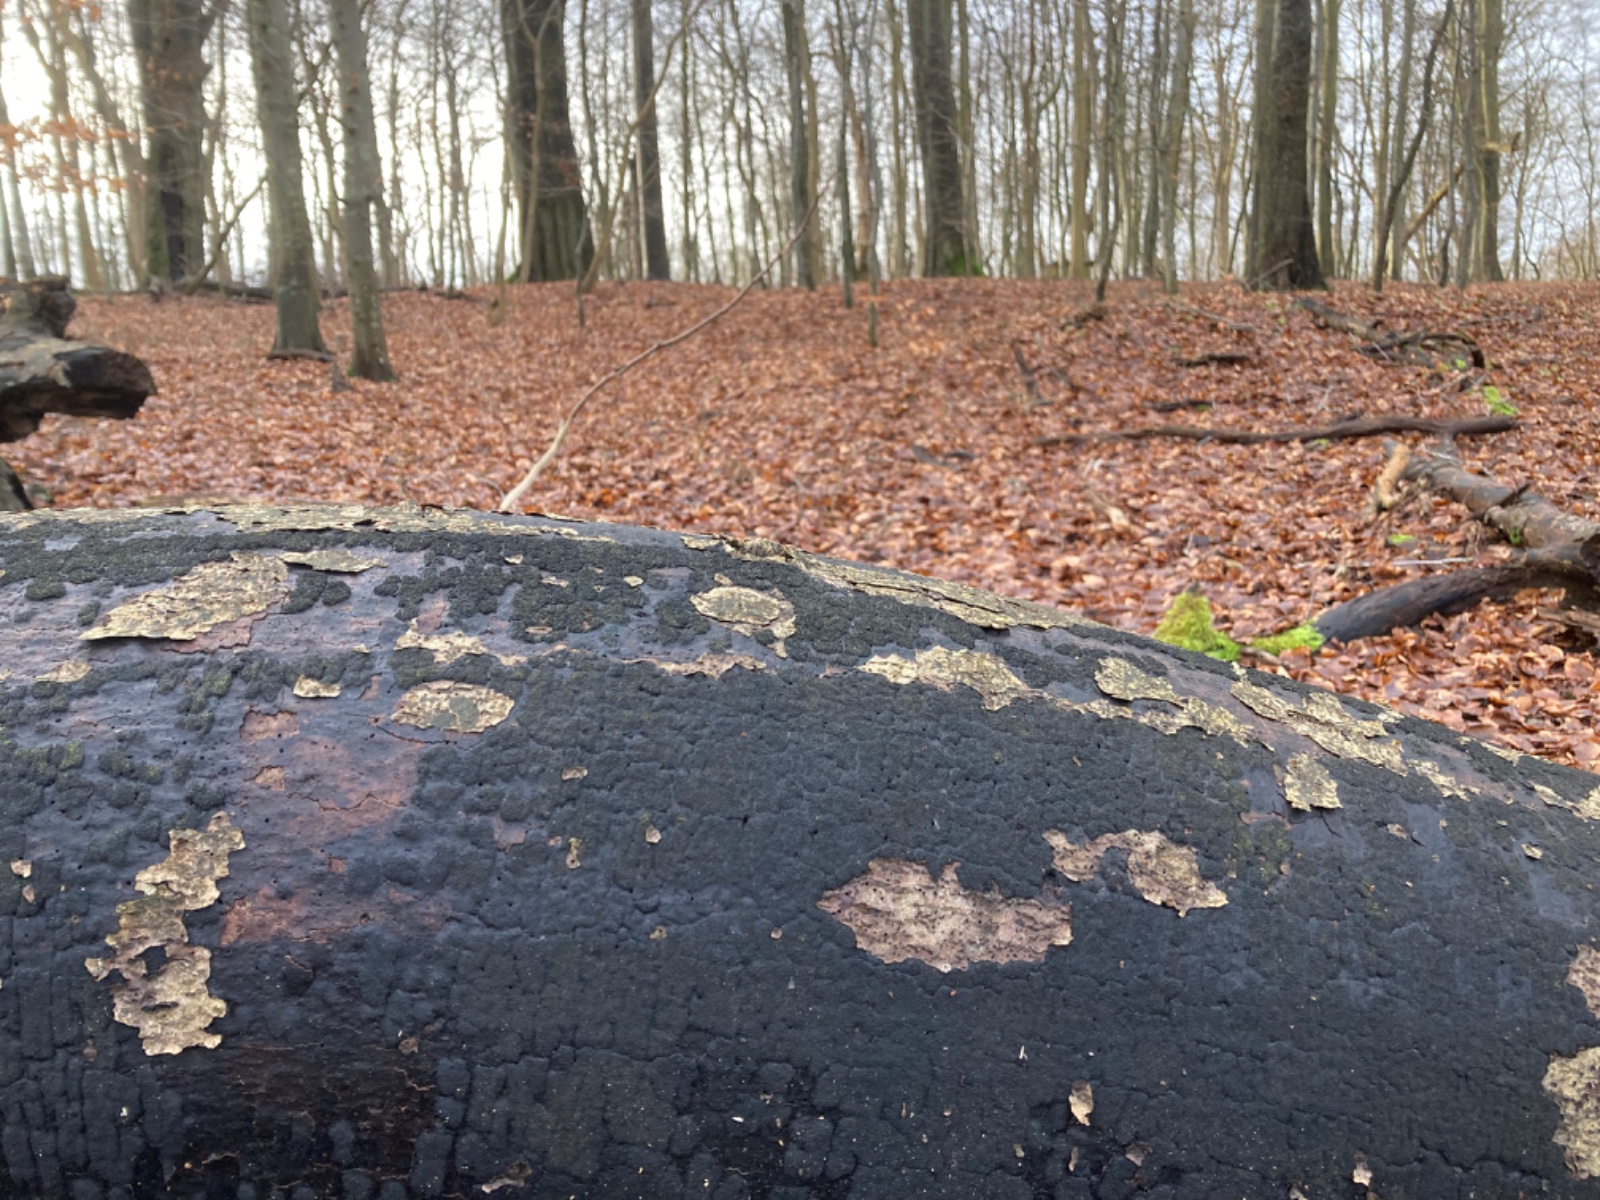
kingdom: Fungi
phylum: Ascomycota
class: Sordariomycetes
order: Xylariales
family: Diatrypaceae
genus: Eutypa
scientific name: Eutypa spinosa
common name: grov kulskorpe
